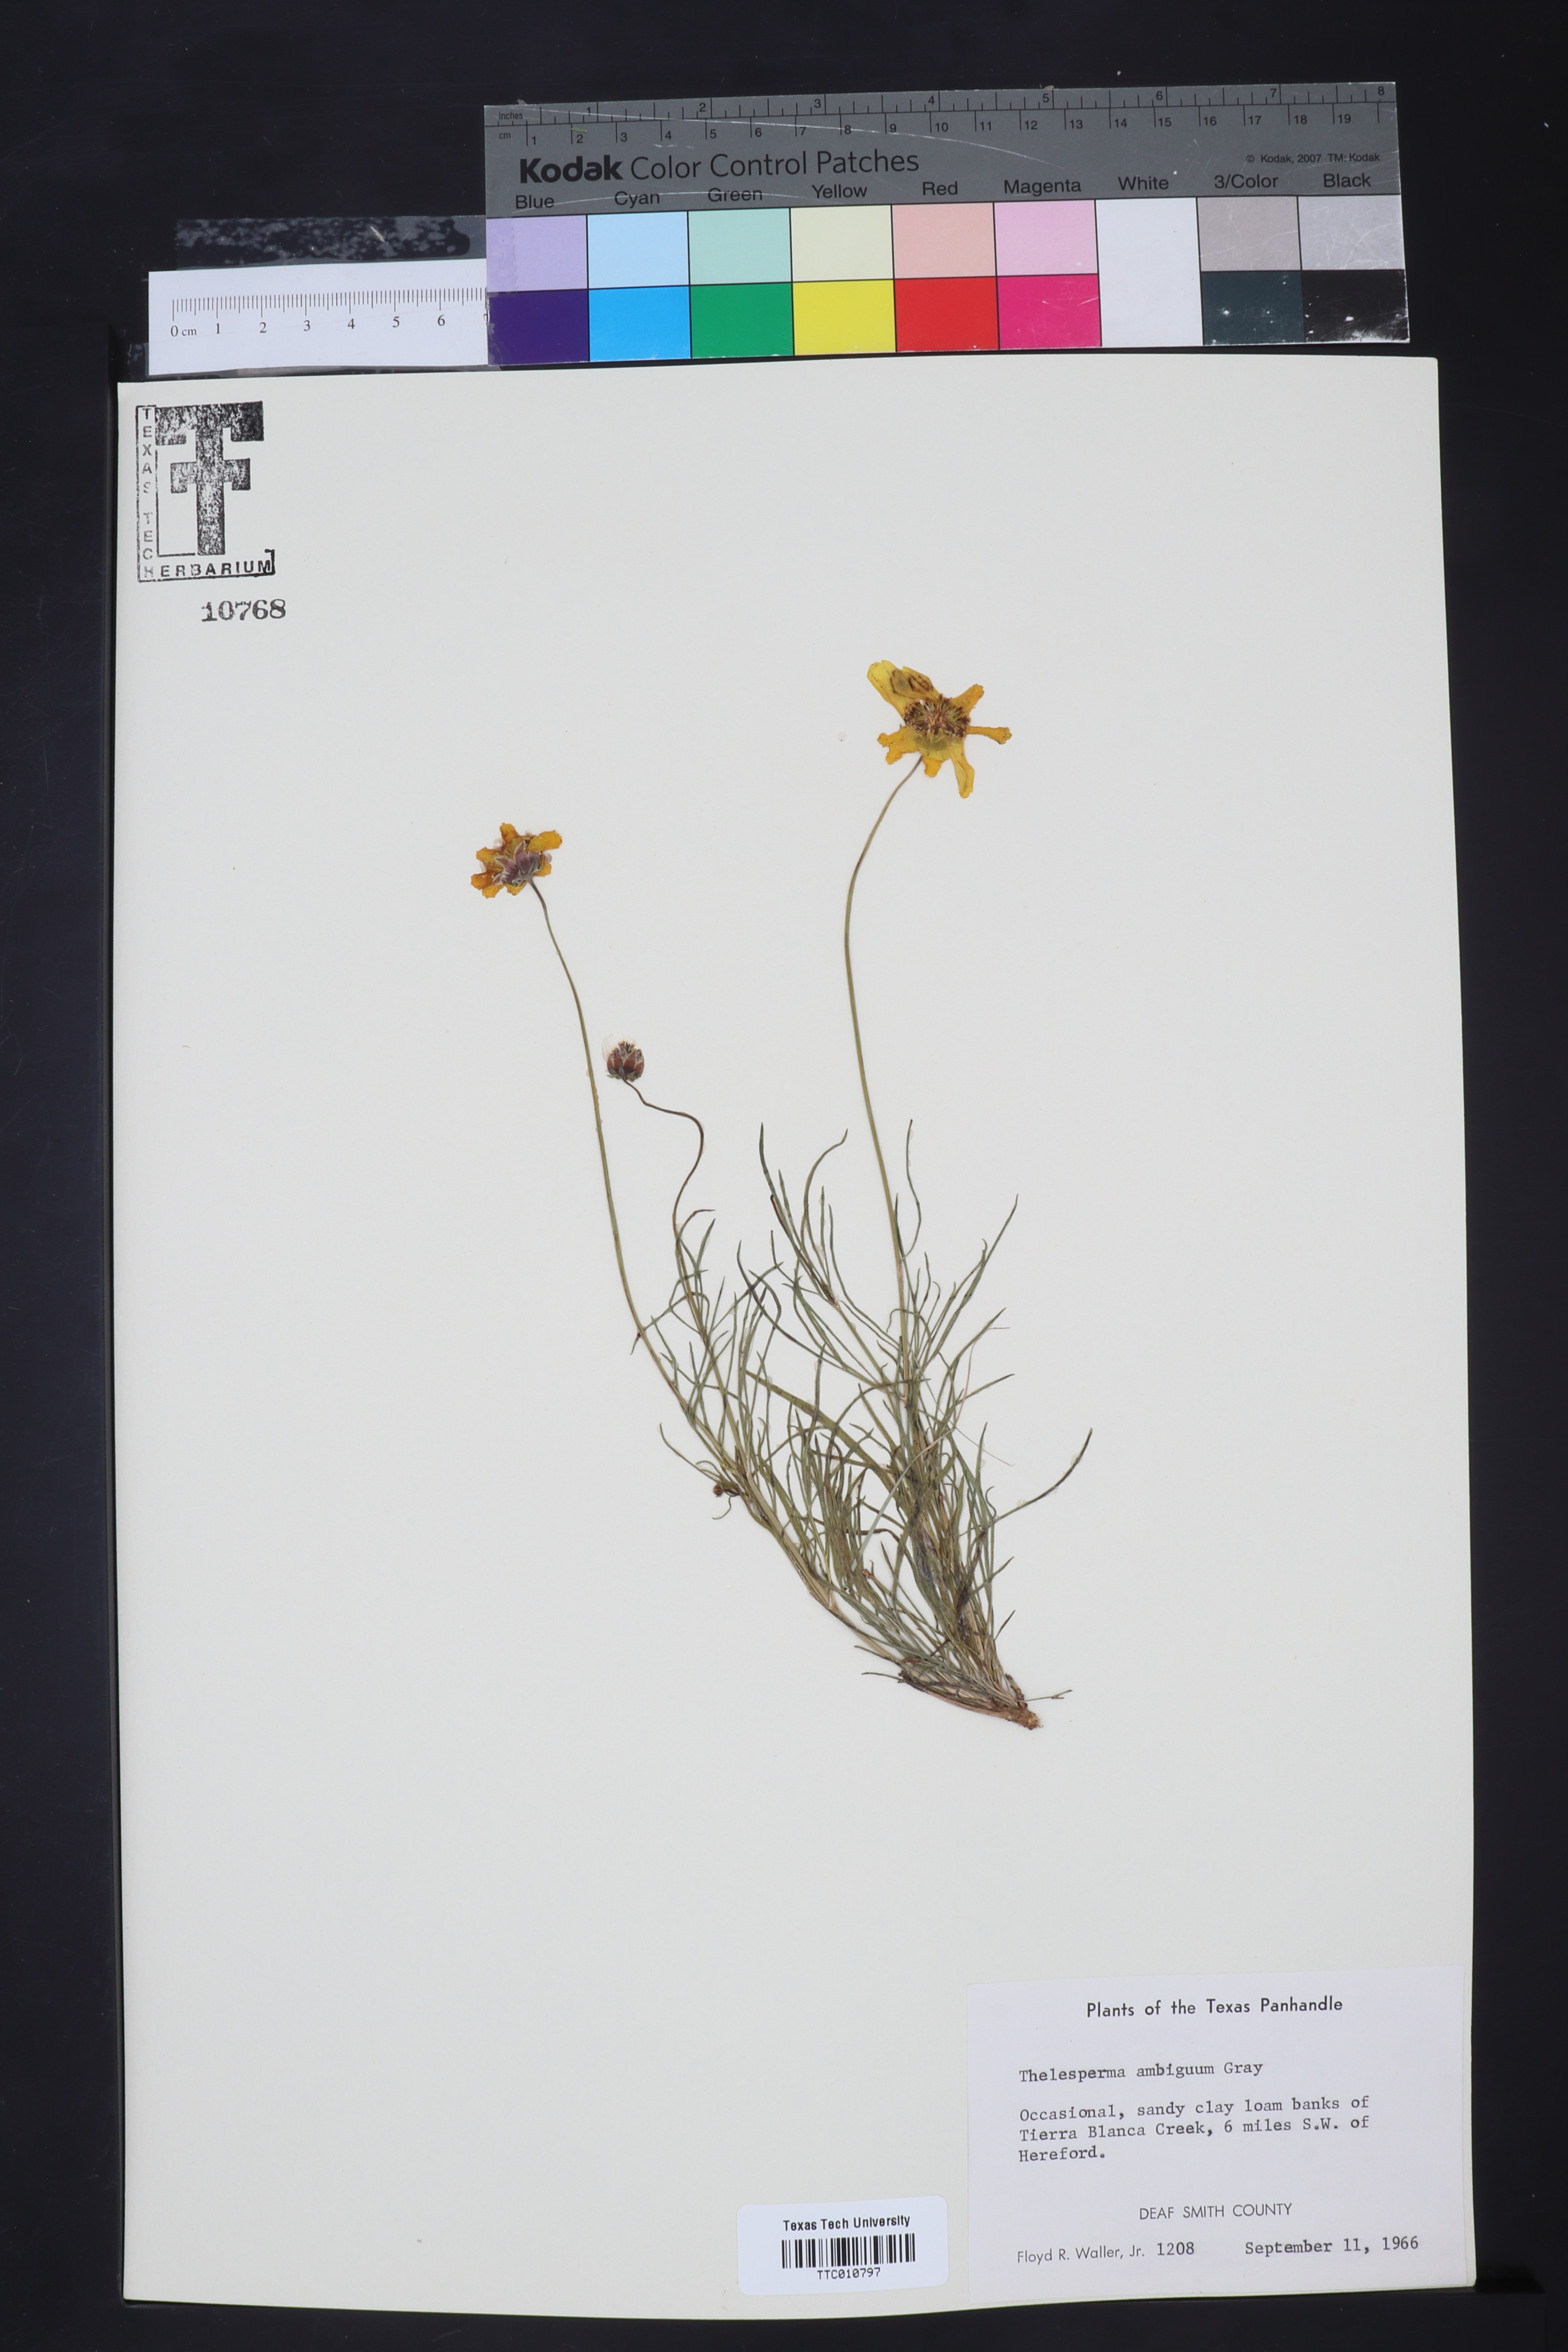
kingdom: Plantae
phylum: Tracheophyta
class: Magnoliopsida
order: Asterales
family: Asteraceae
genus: Thelesperma
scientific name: Thelesperma ambiguum
